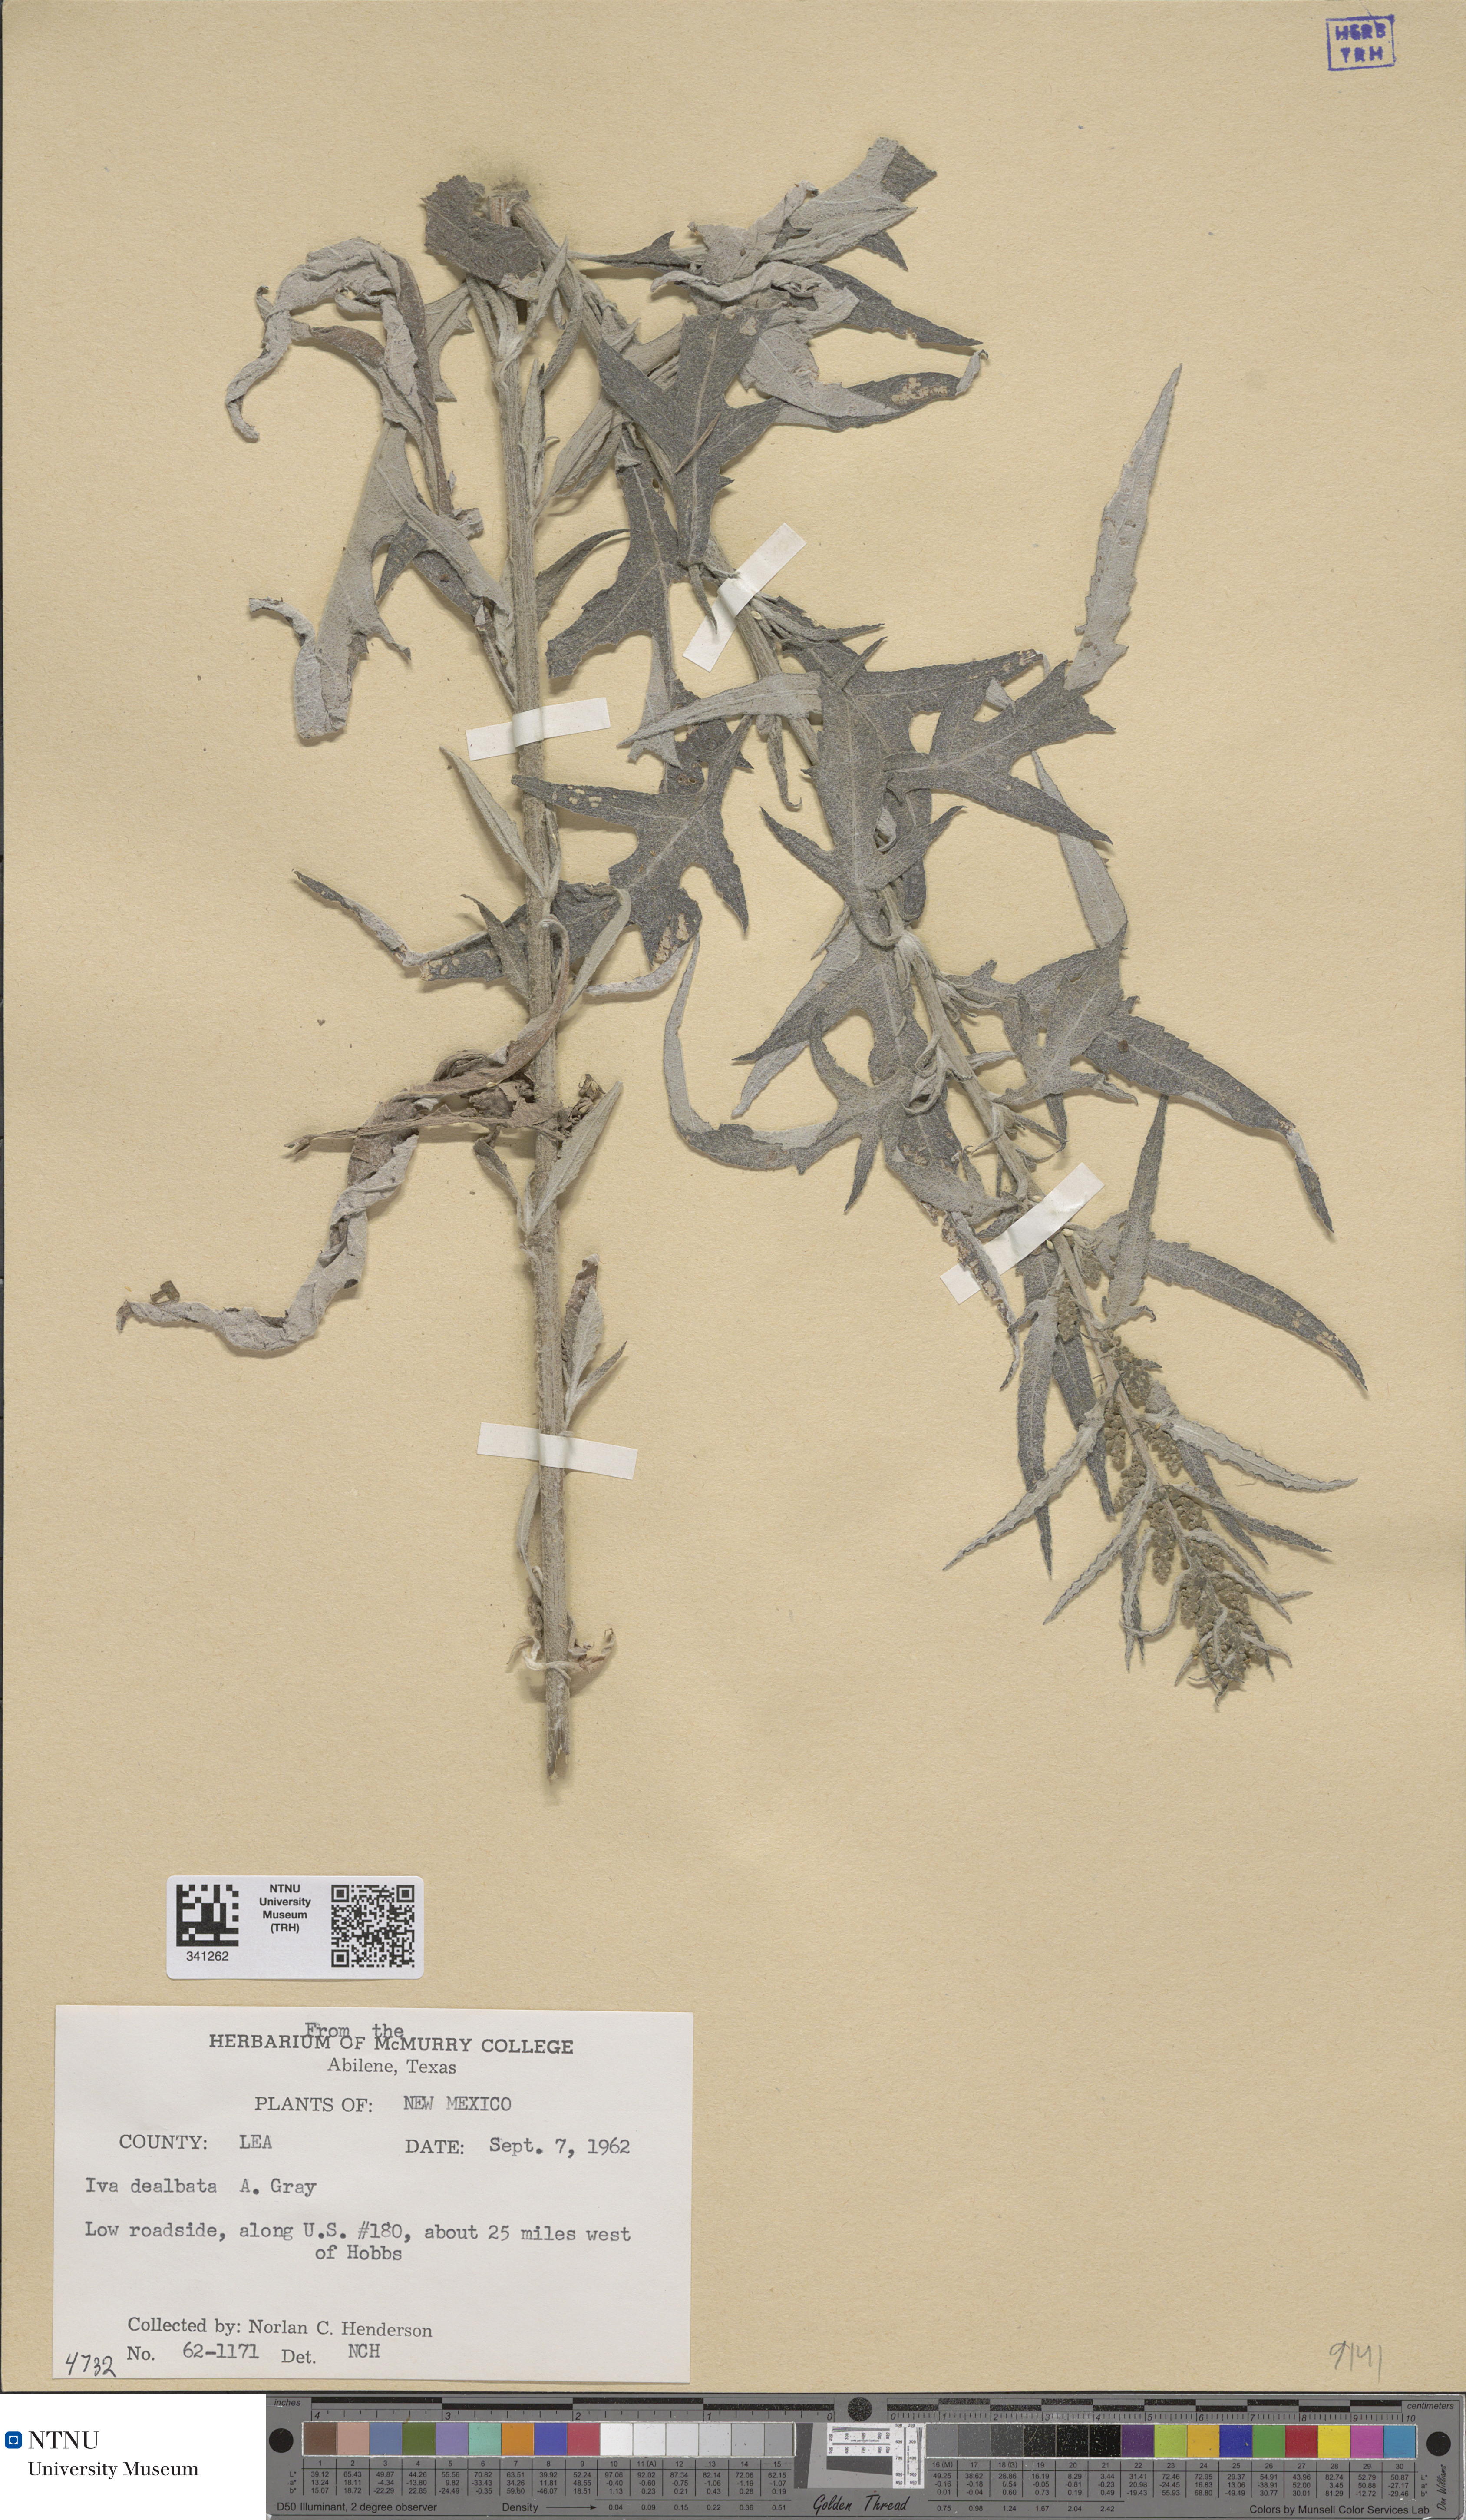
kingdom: Plantae
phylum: Tracheophyta
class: Magnoliopsida
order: Asterales
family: Asteraceae
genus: Euphrosyne
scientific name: Euphrosyne dealbata
